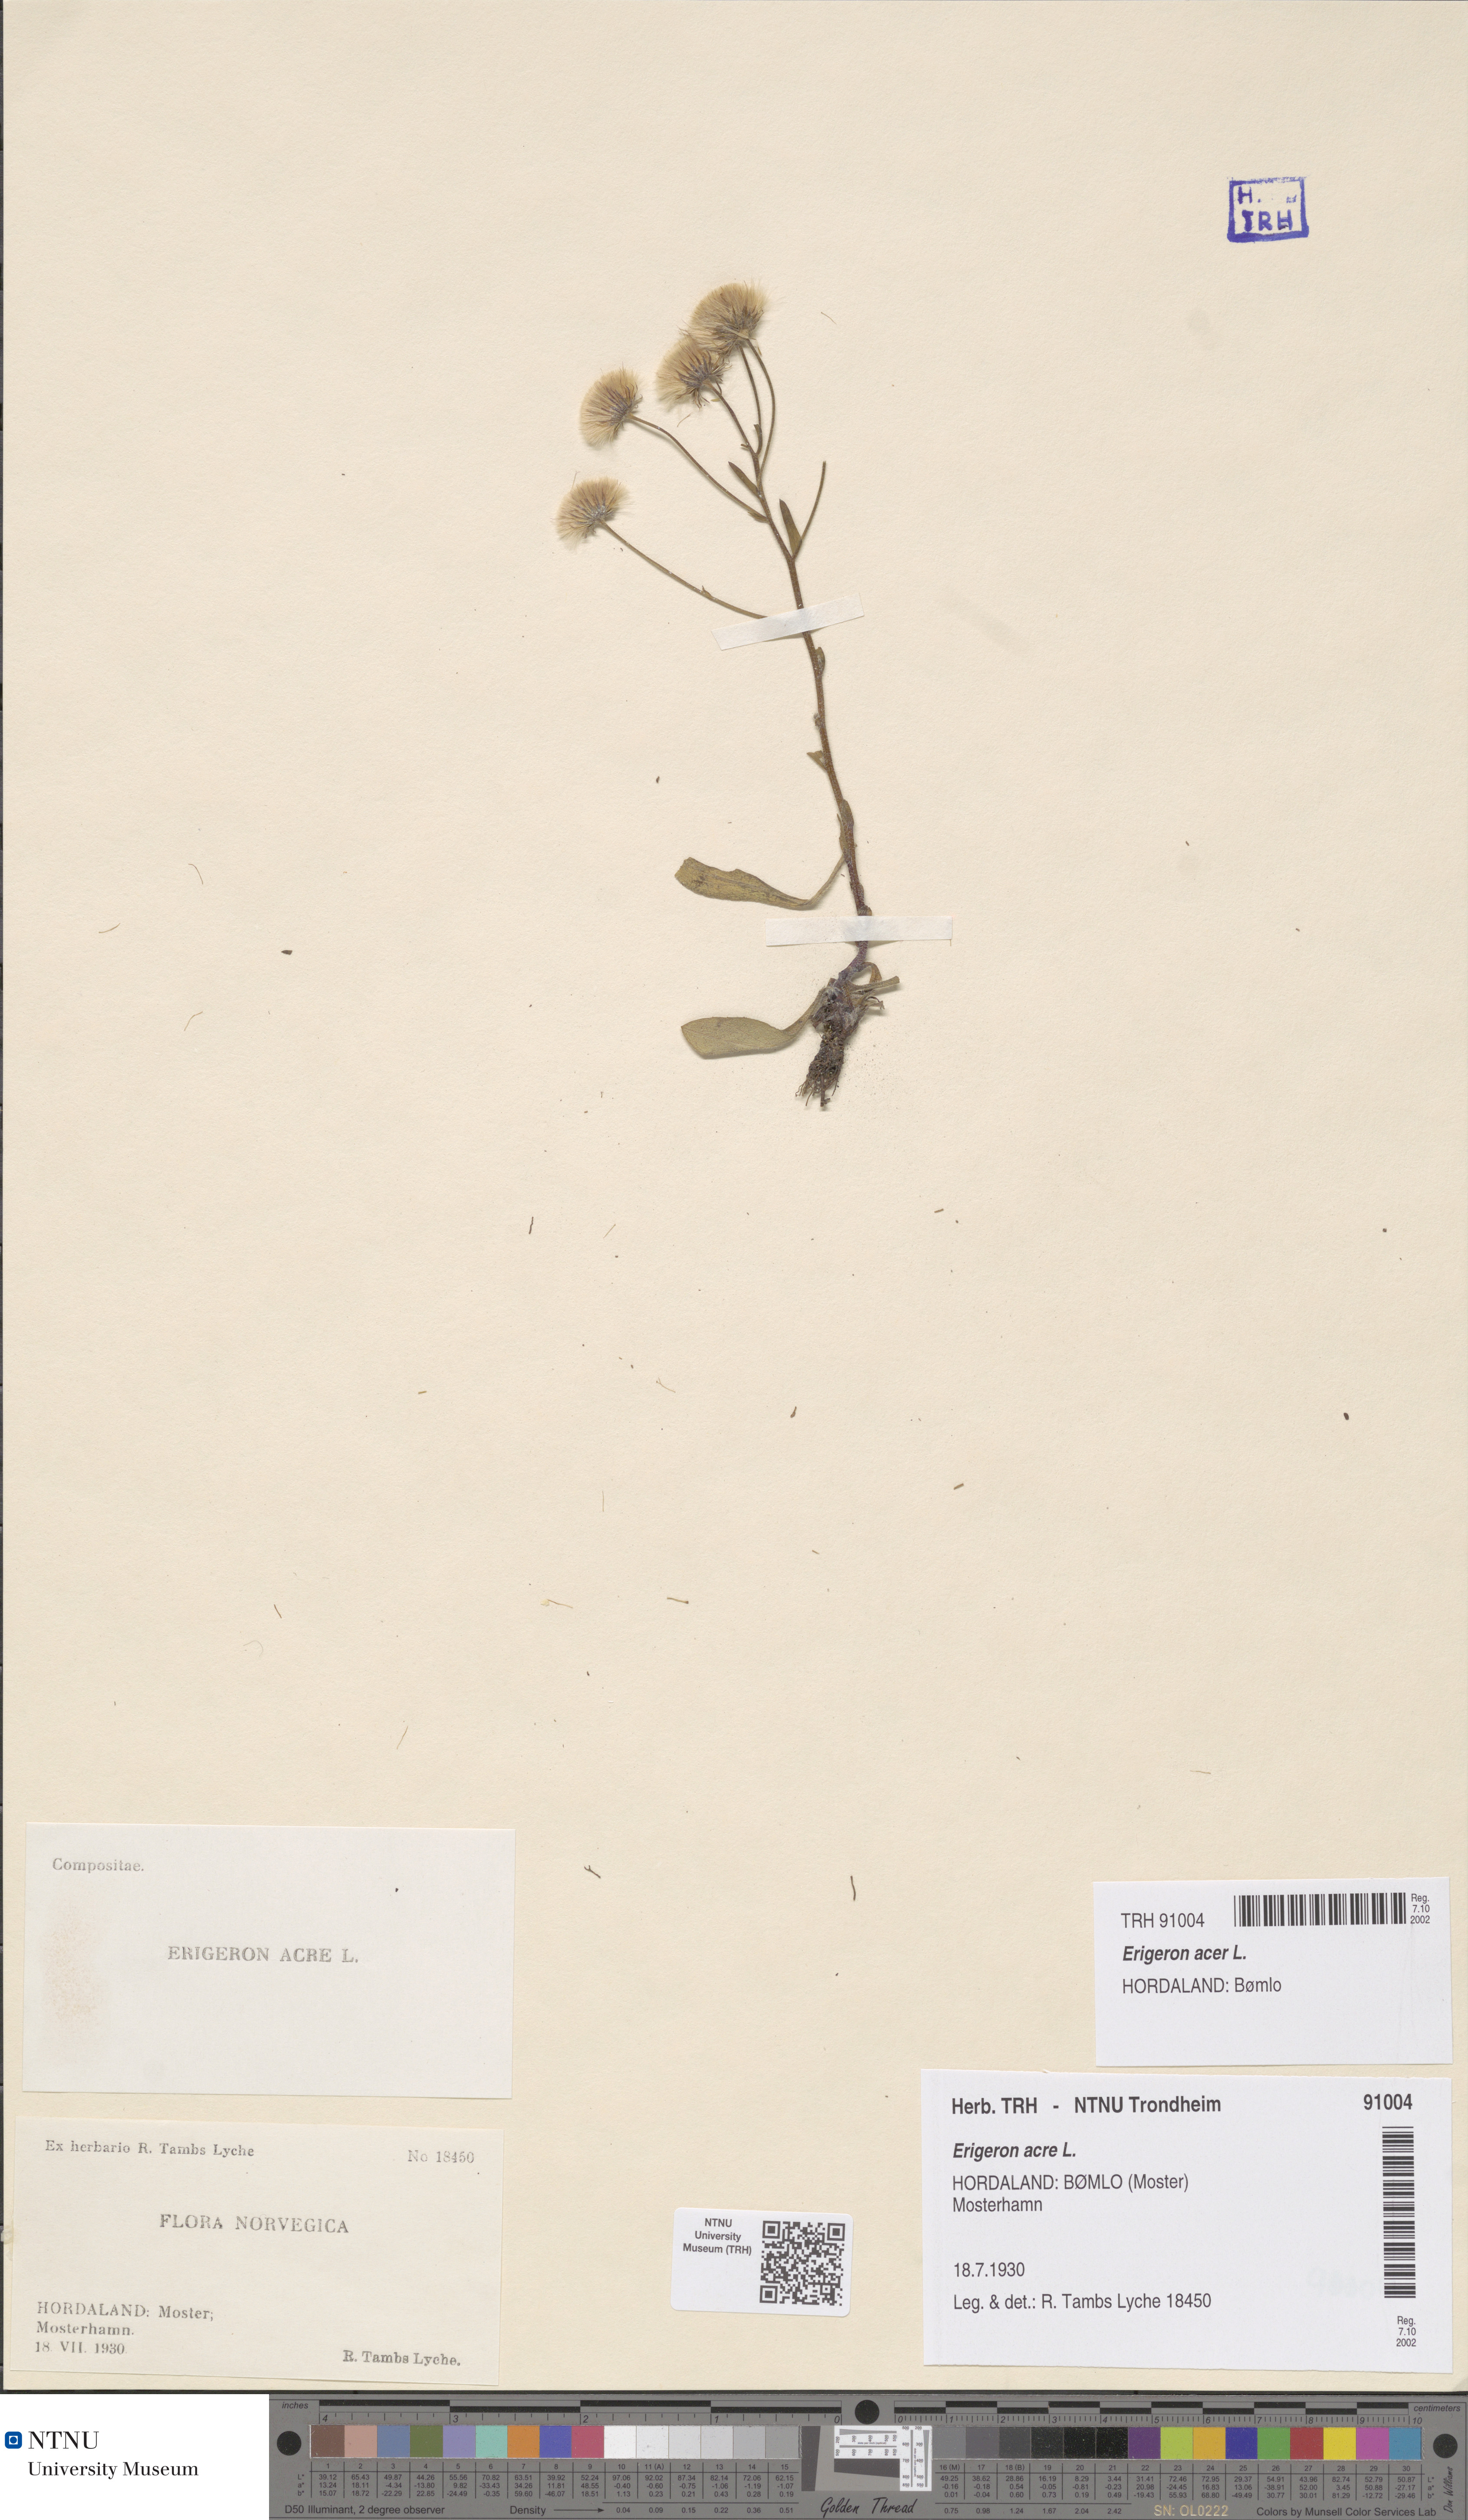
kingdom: Plantae
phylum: Tracheophyta
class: Magnoliopsida
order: Asterales
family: Asteraceae
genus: Erigeron
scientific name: Erigeron acris
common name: Blue fleabane
